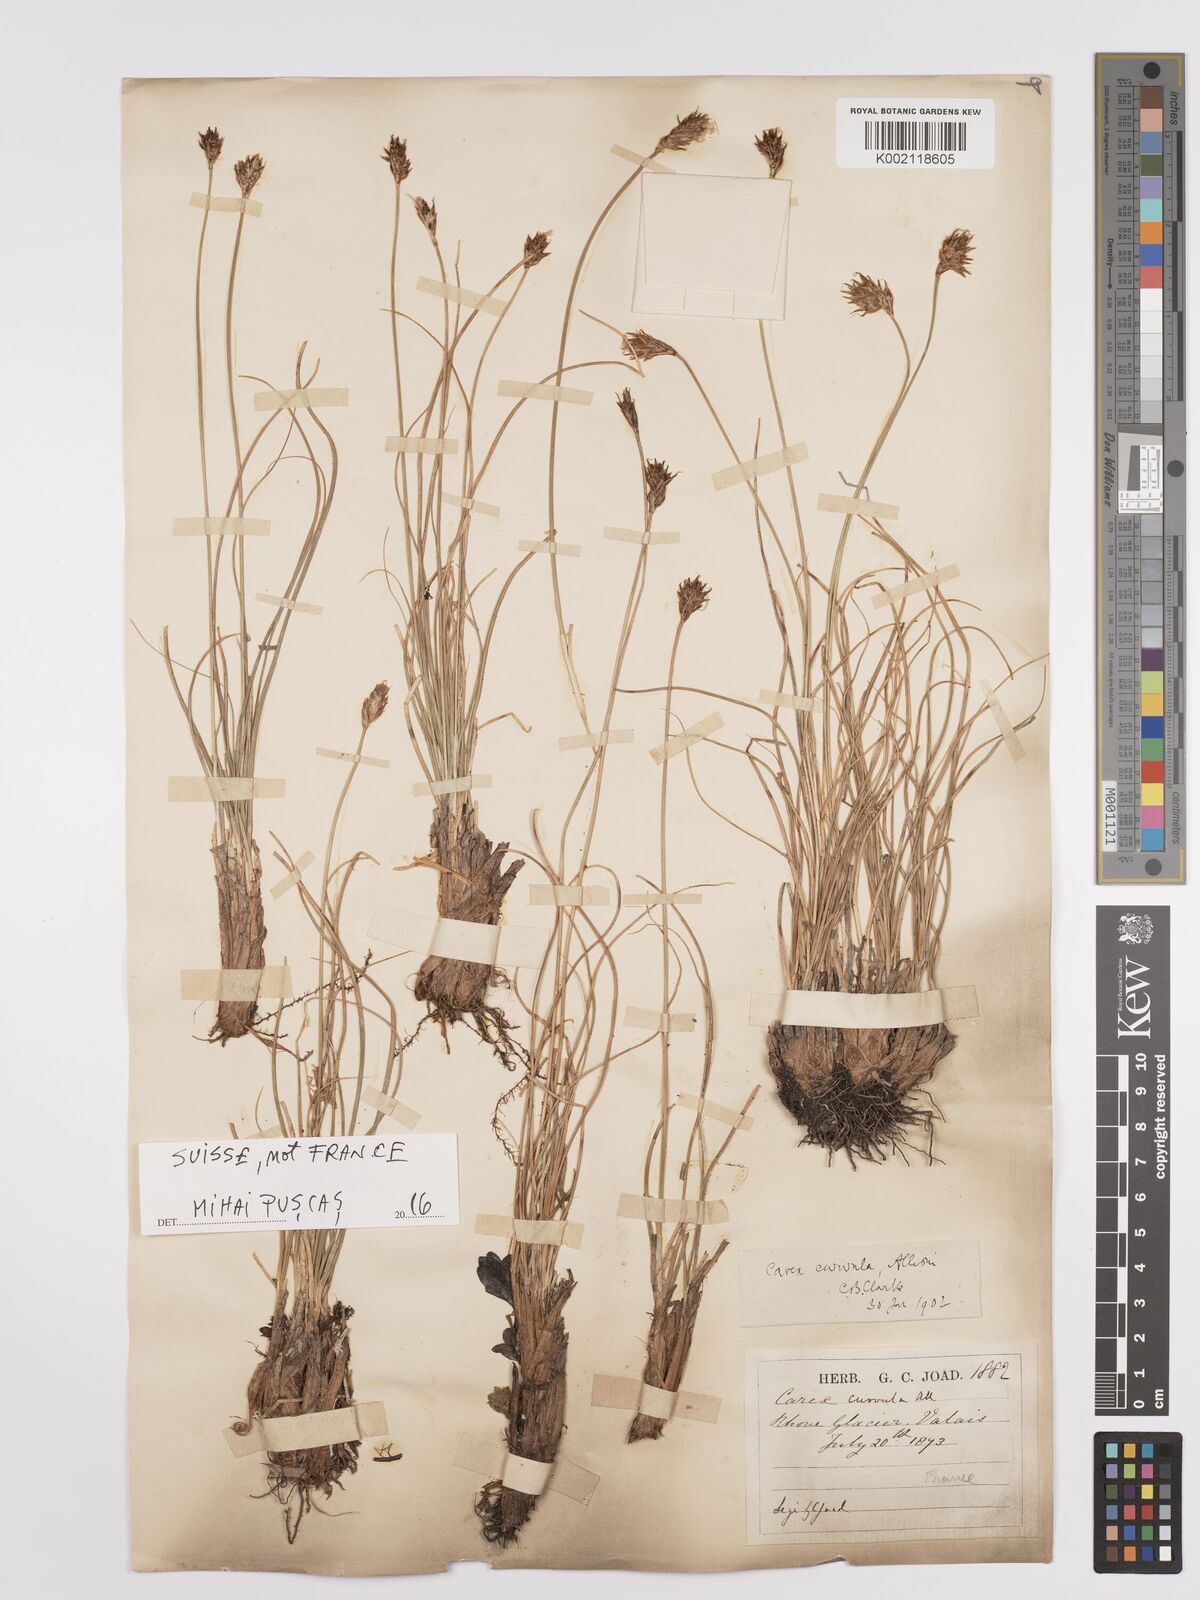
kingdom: Plantae
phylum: Tracheophyta
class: Liliopsida
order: Poales
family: Cyperaceae
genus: Carex
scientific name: Carex curvula
